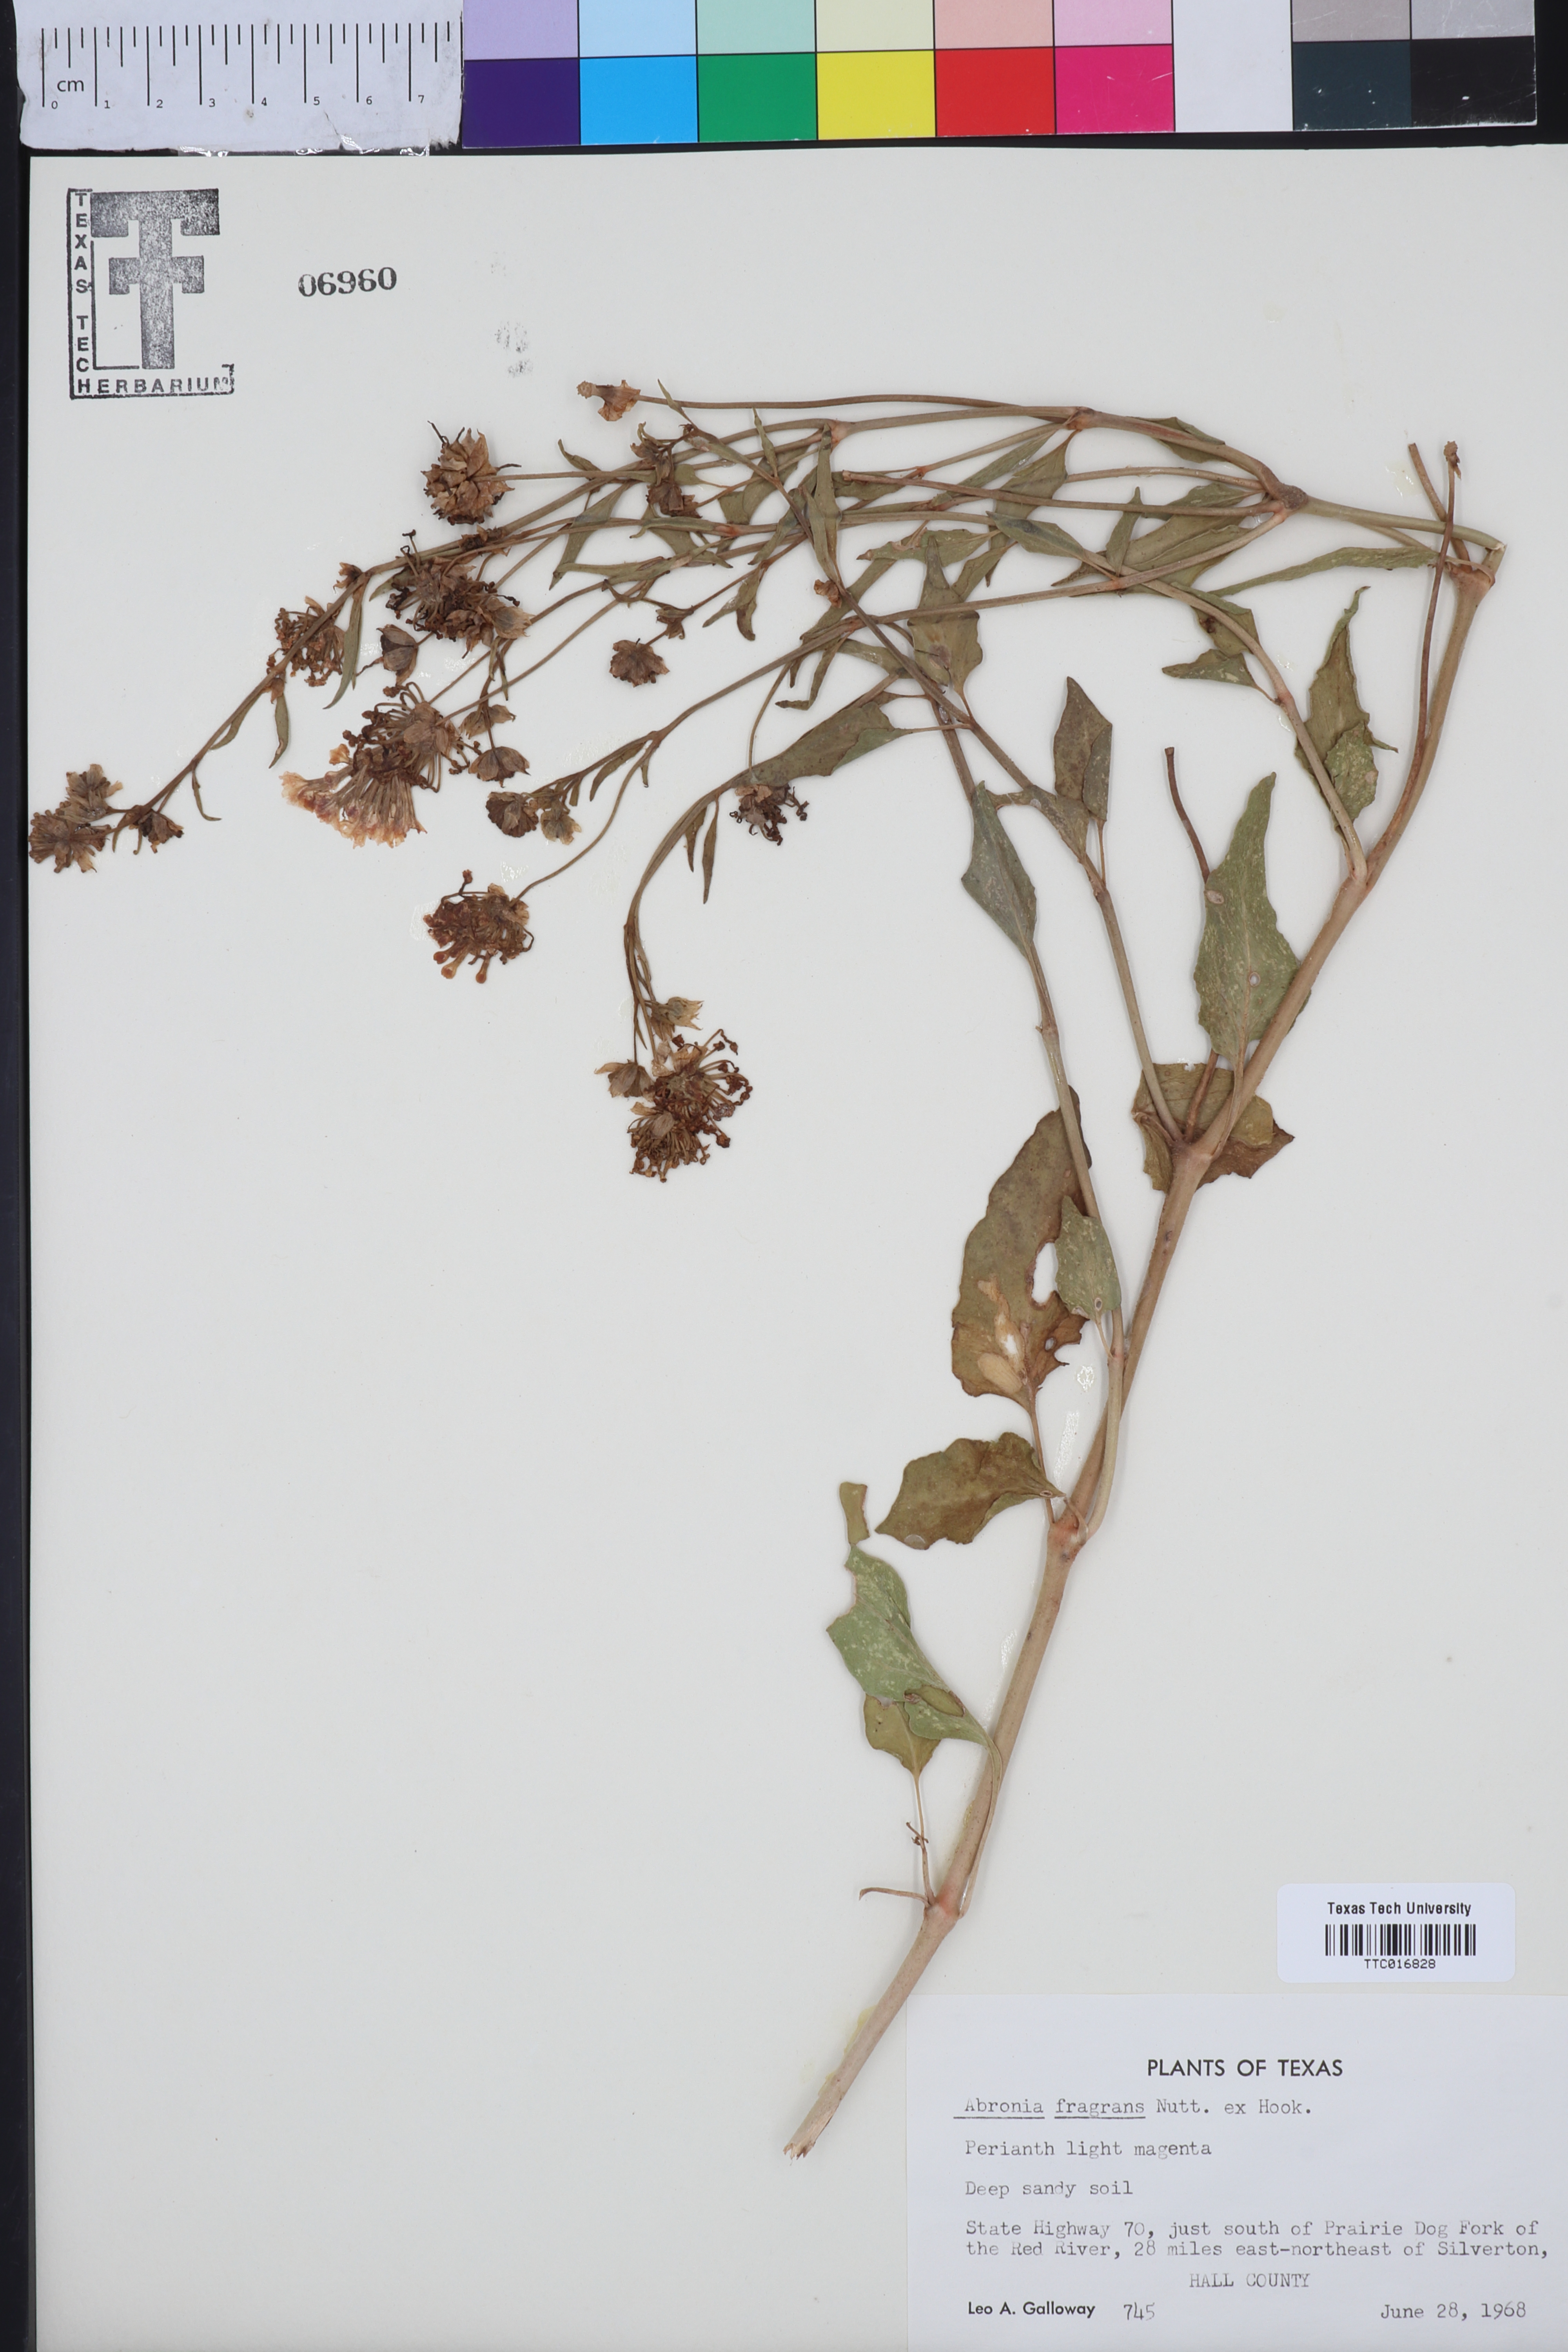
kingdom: Plantae
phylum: Tracheophyta
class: Magnoliopsida
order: Caryophyllales
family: Nyctaginaceae
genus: Abronia
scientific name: Abronia fragrans
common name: Fragrant sand-verbena
